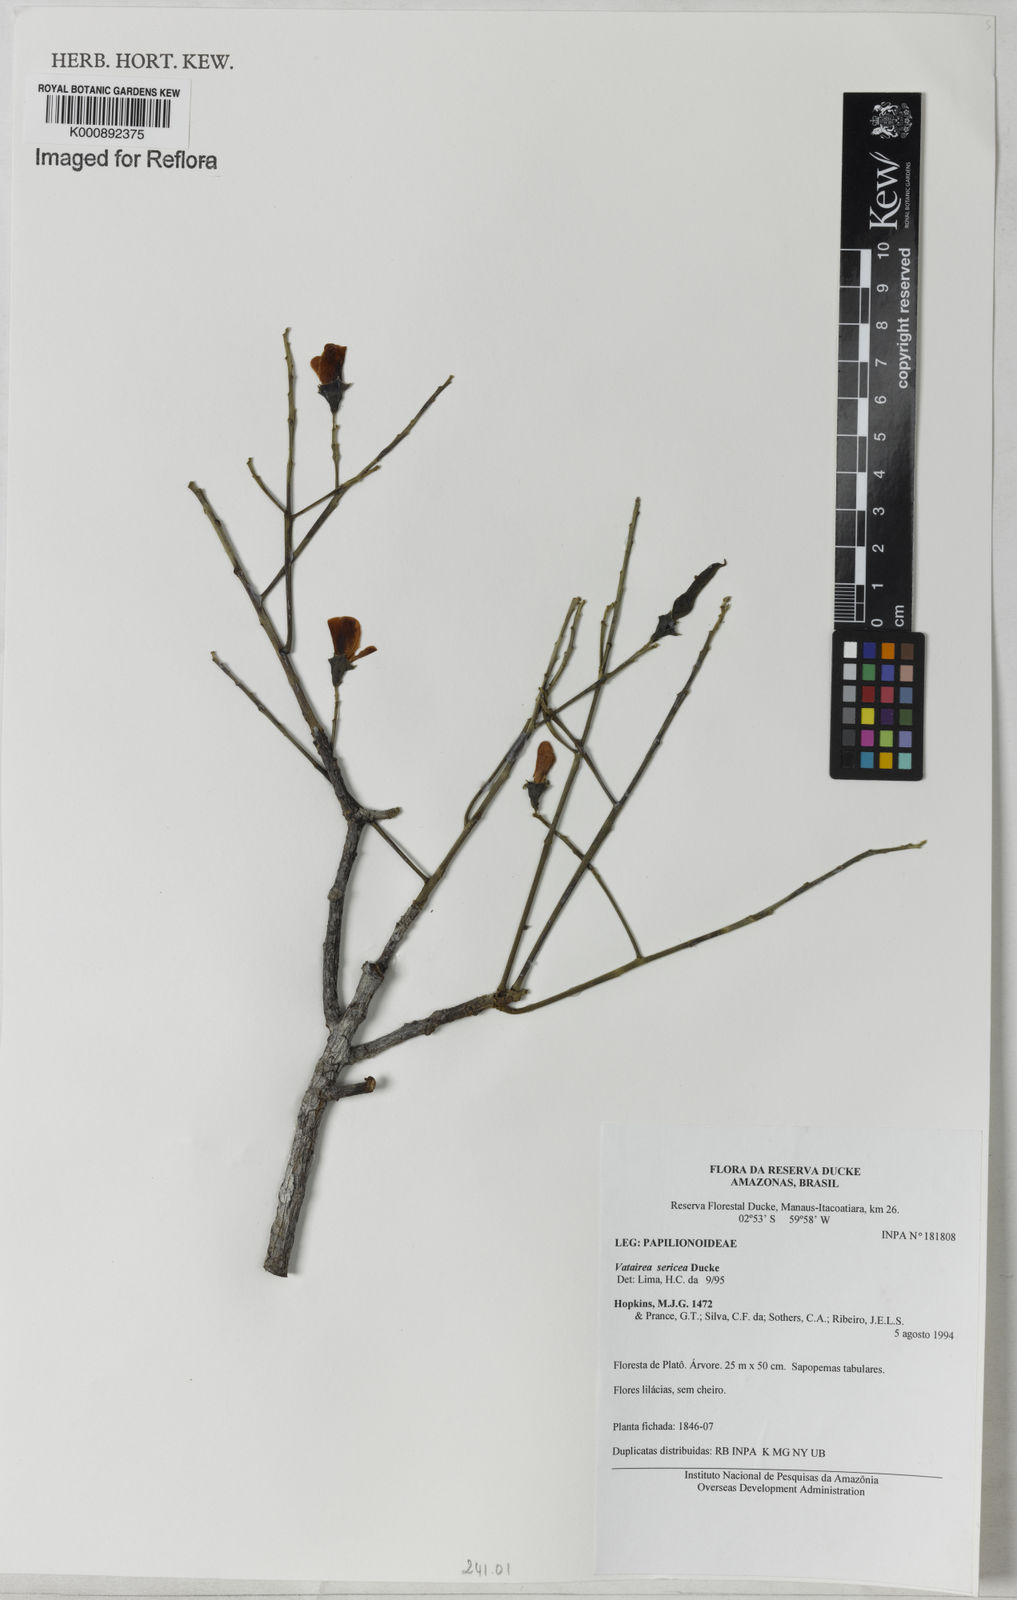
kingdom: Plantae
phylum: Tracheophyta
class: Magnoliopsida
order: Fabales
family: Fabaceae
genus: Vatairea
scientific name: Vatairea sericea
